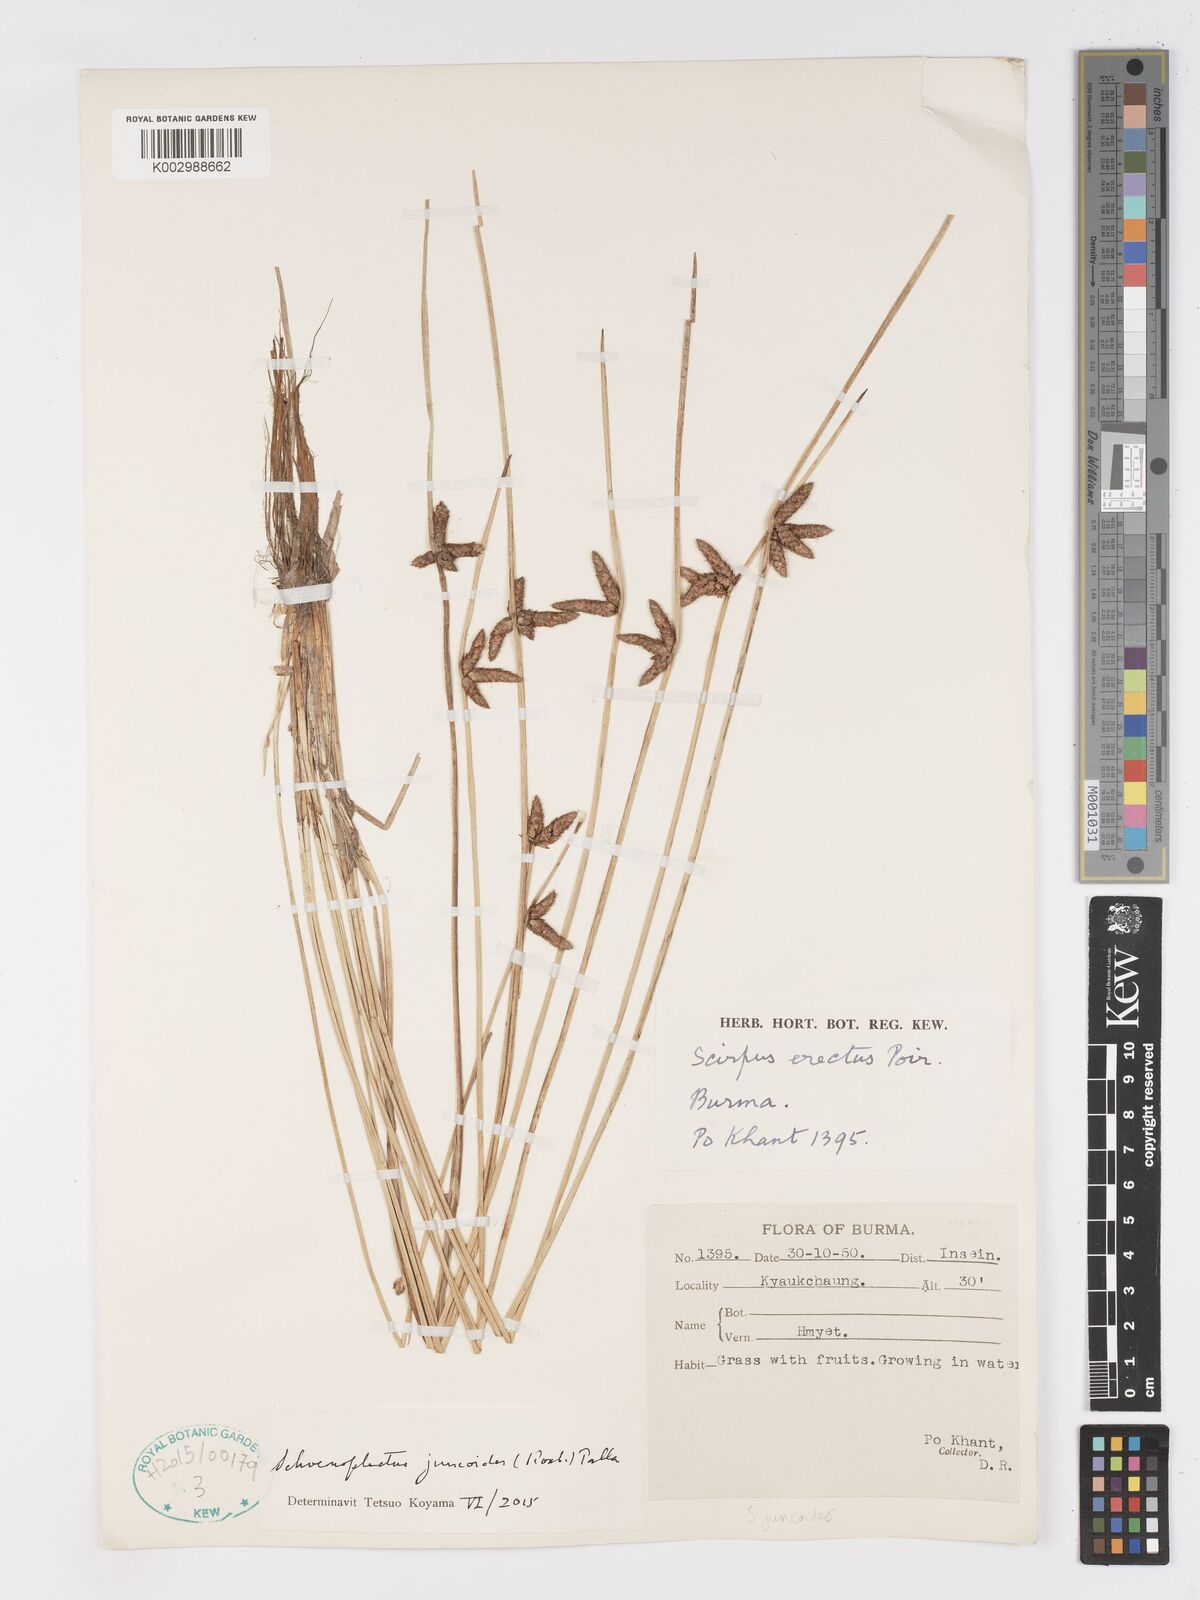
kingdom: Plantae
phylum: Tracheophyta
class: Liliopsida
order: Poales
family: Cyperaceae
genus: Schoenoplectiella
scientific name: Schoenoplectiella juncoides
